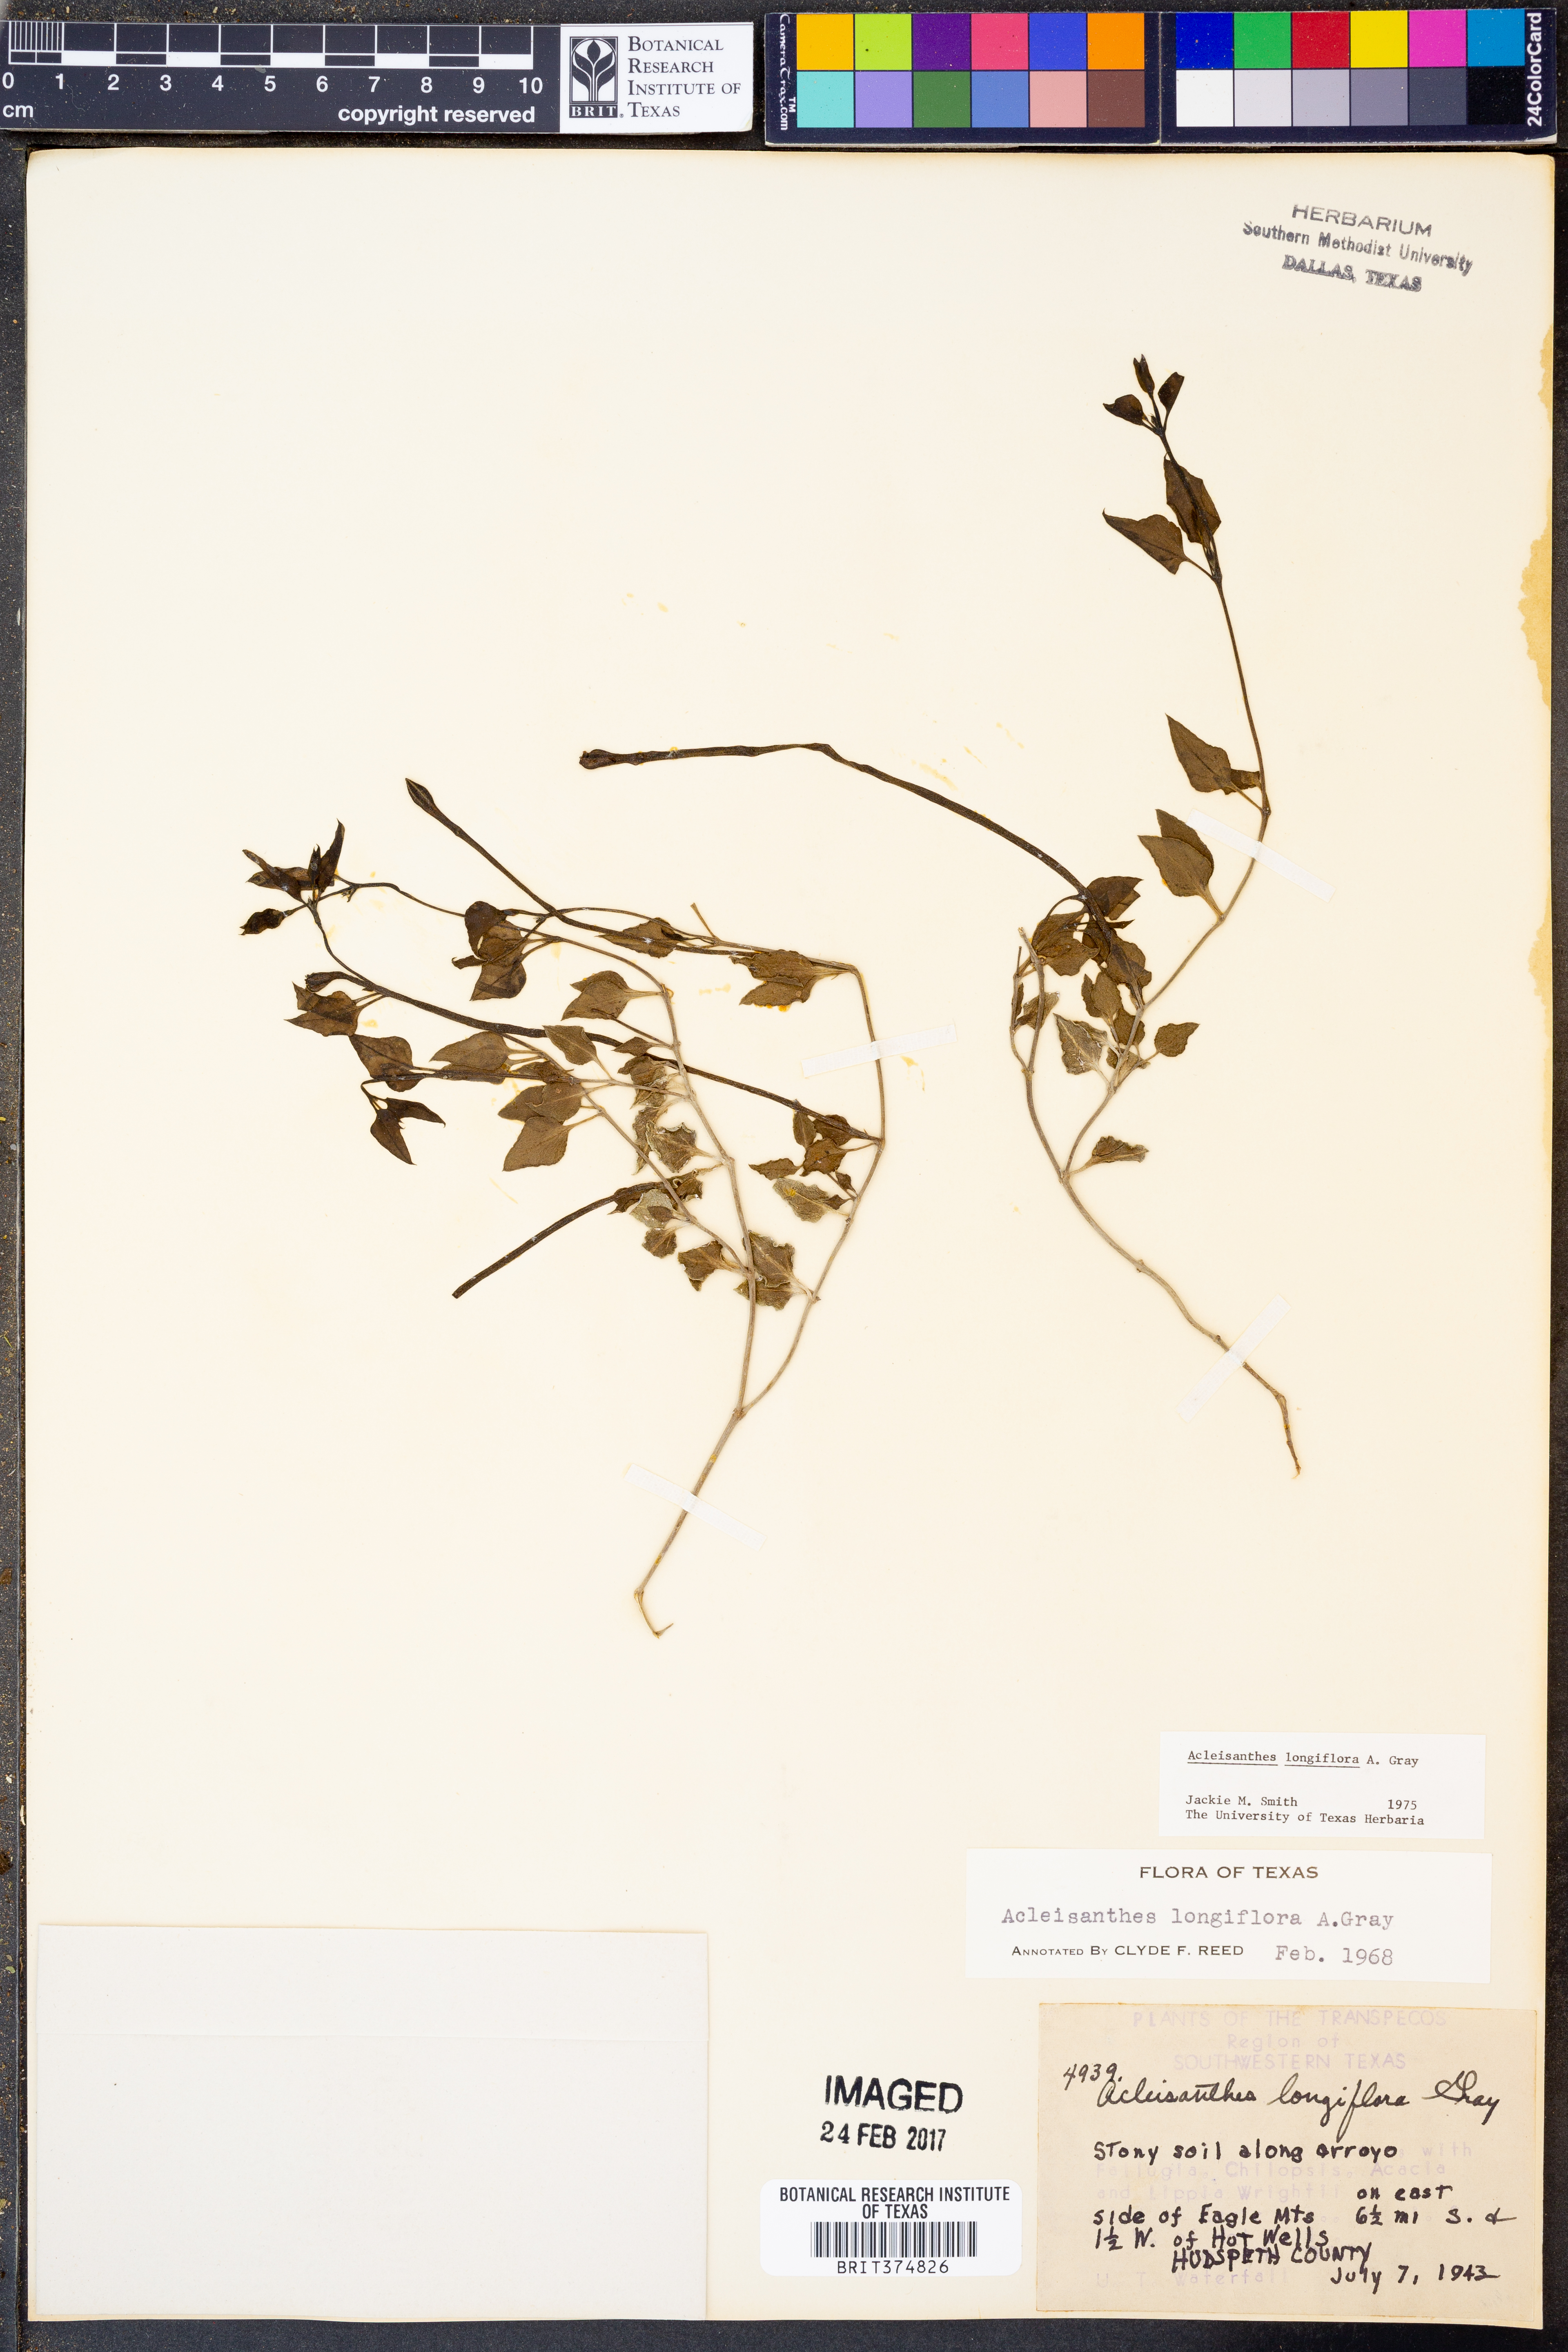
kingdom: Plantae
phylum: Tracheophyta
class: Magnoliopsida
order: Caryophyllales
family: Nyctaginaceae
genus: Acleisanthes
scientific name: Acleisanthes longiflora
